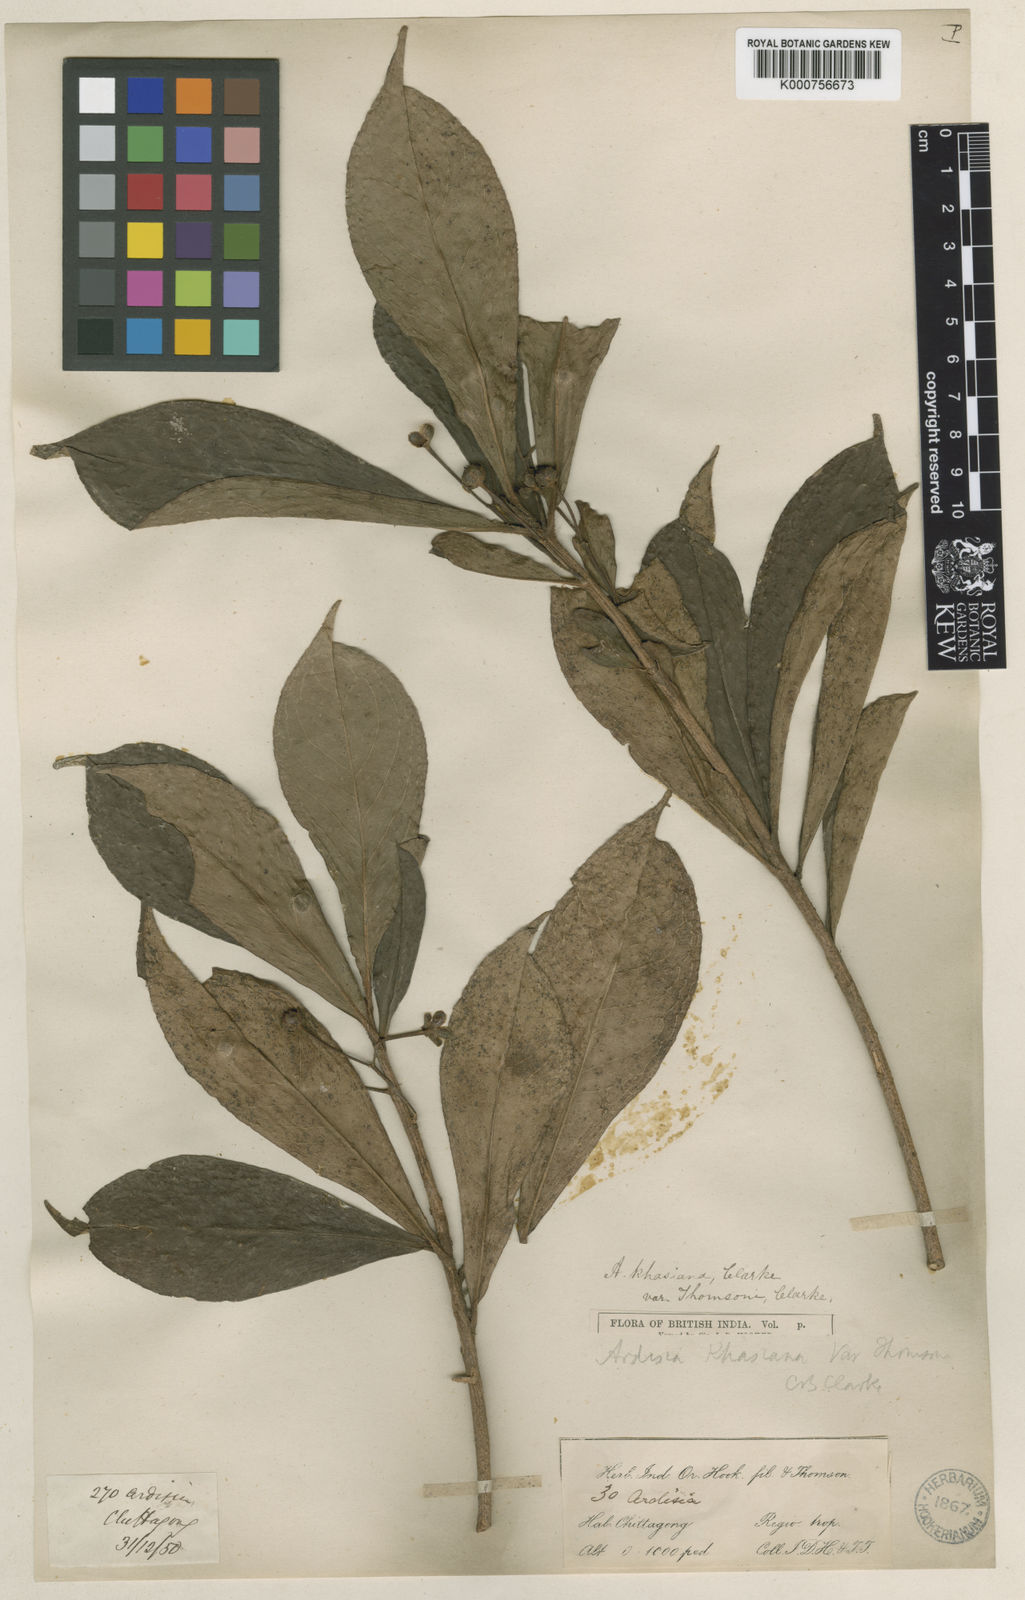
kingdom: Plantae
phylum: Tracheophyta
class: Magnoliopsida
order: Ericales
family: Primulaceae
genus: Ardisia
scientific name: Ardisia thomsonii
